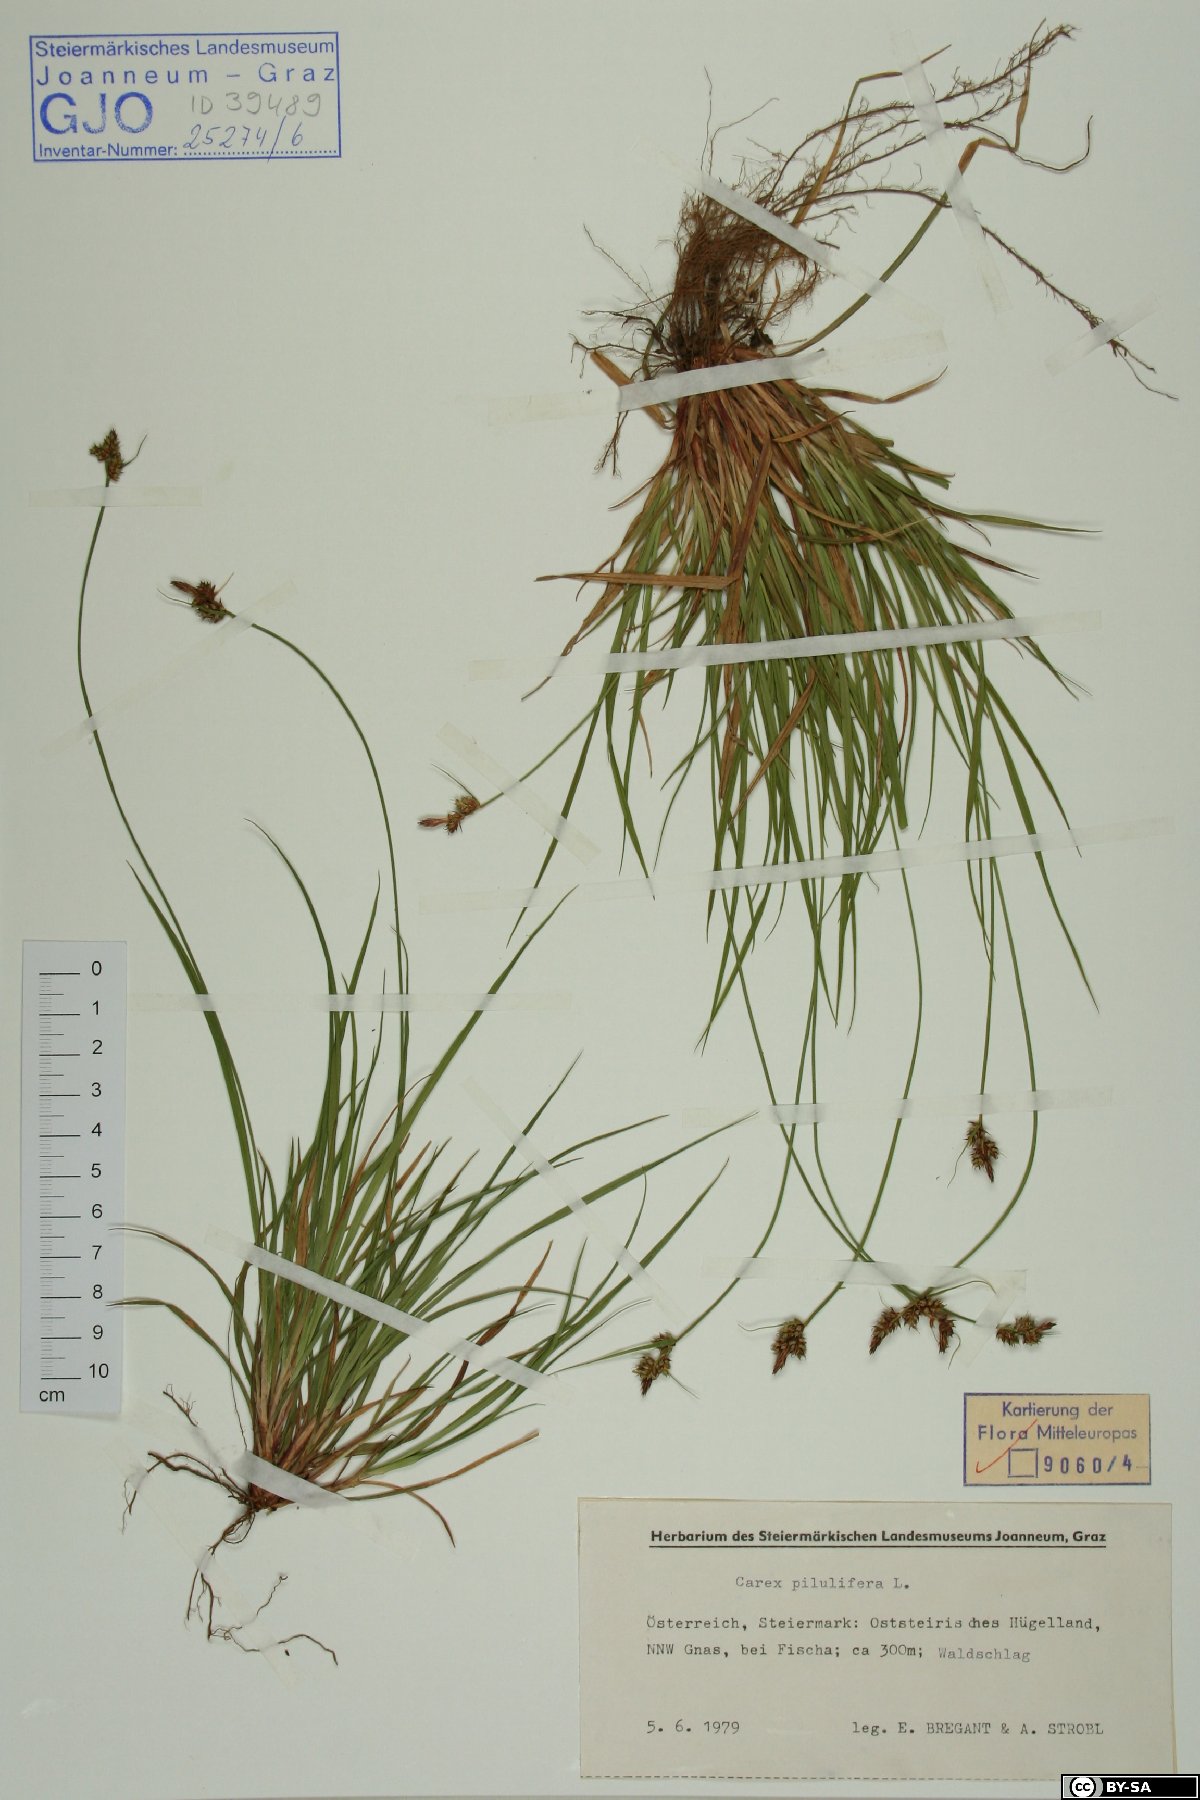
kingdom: Plantae
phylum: Tracheophyta
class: Liliopsida
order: Poales
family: Cyperaceae
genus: Carex
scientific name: Carex pilulifera
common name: Pill sedge
